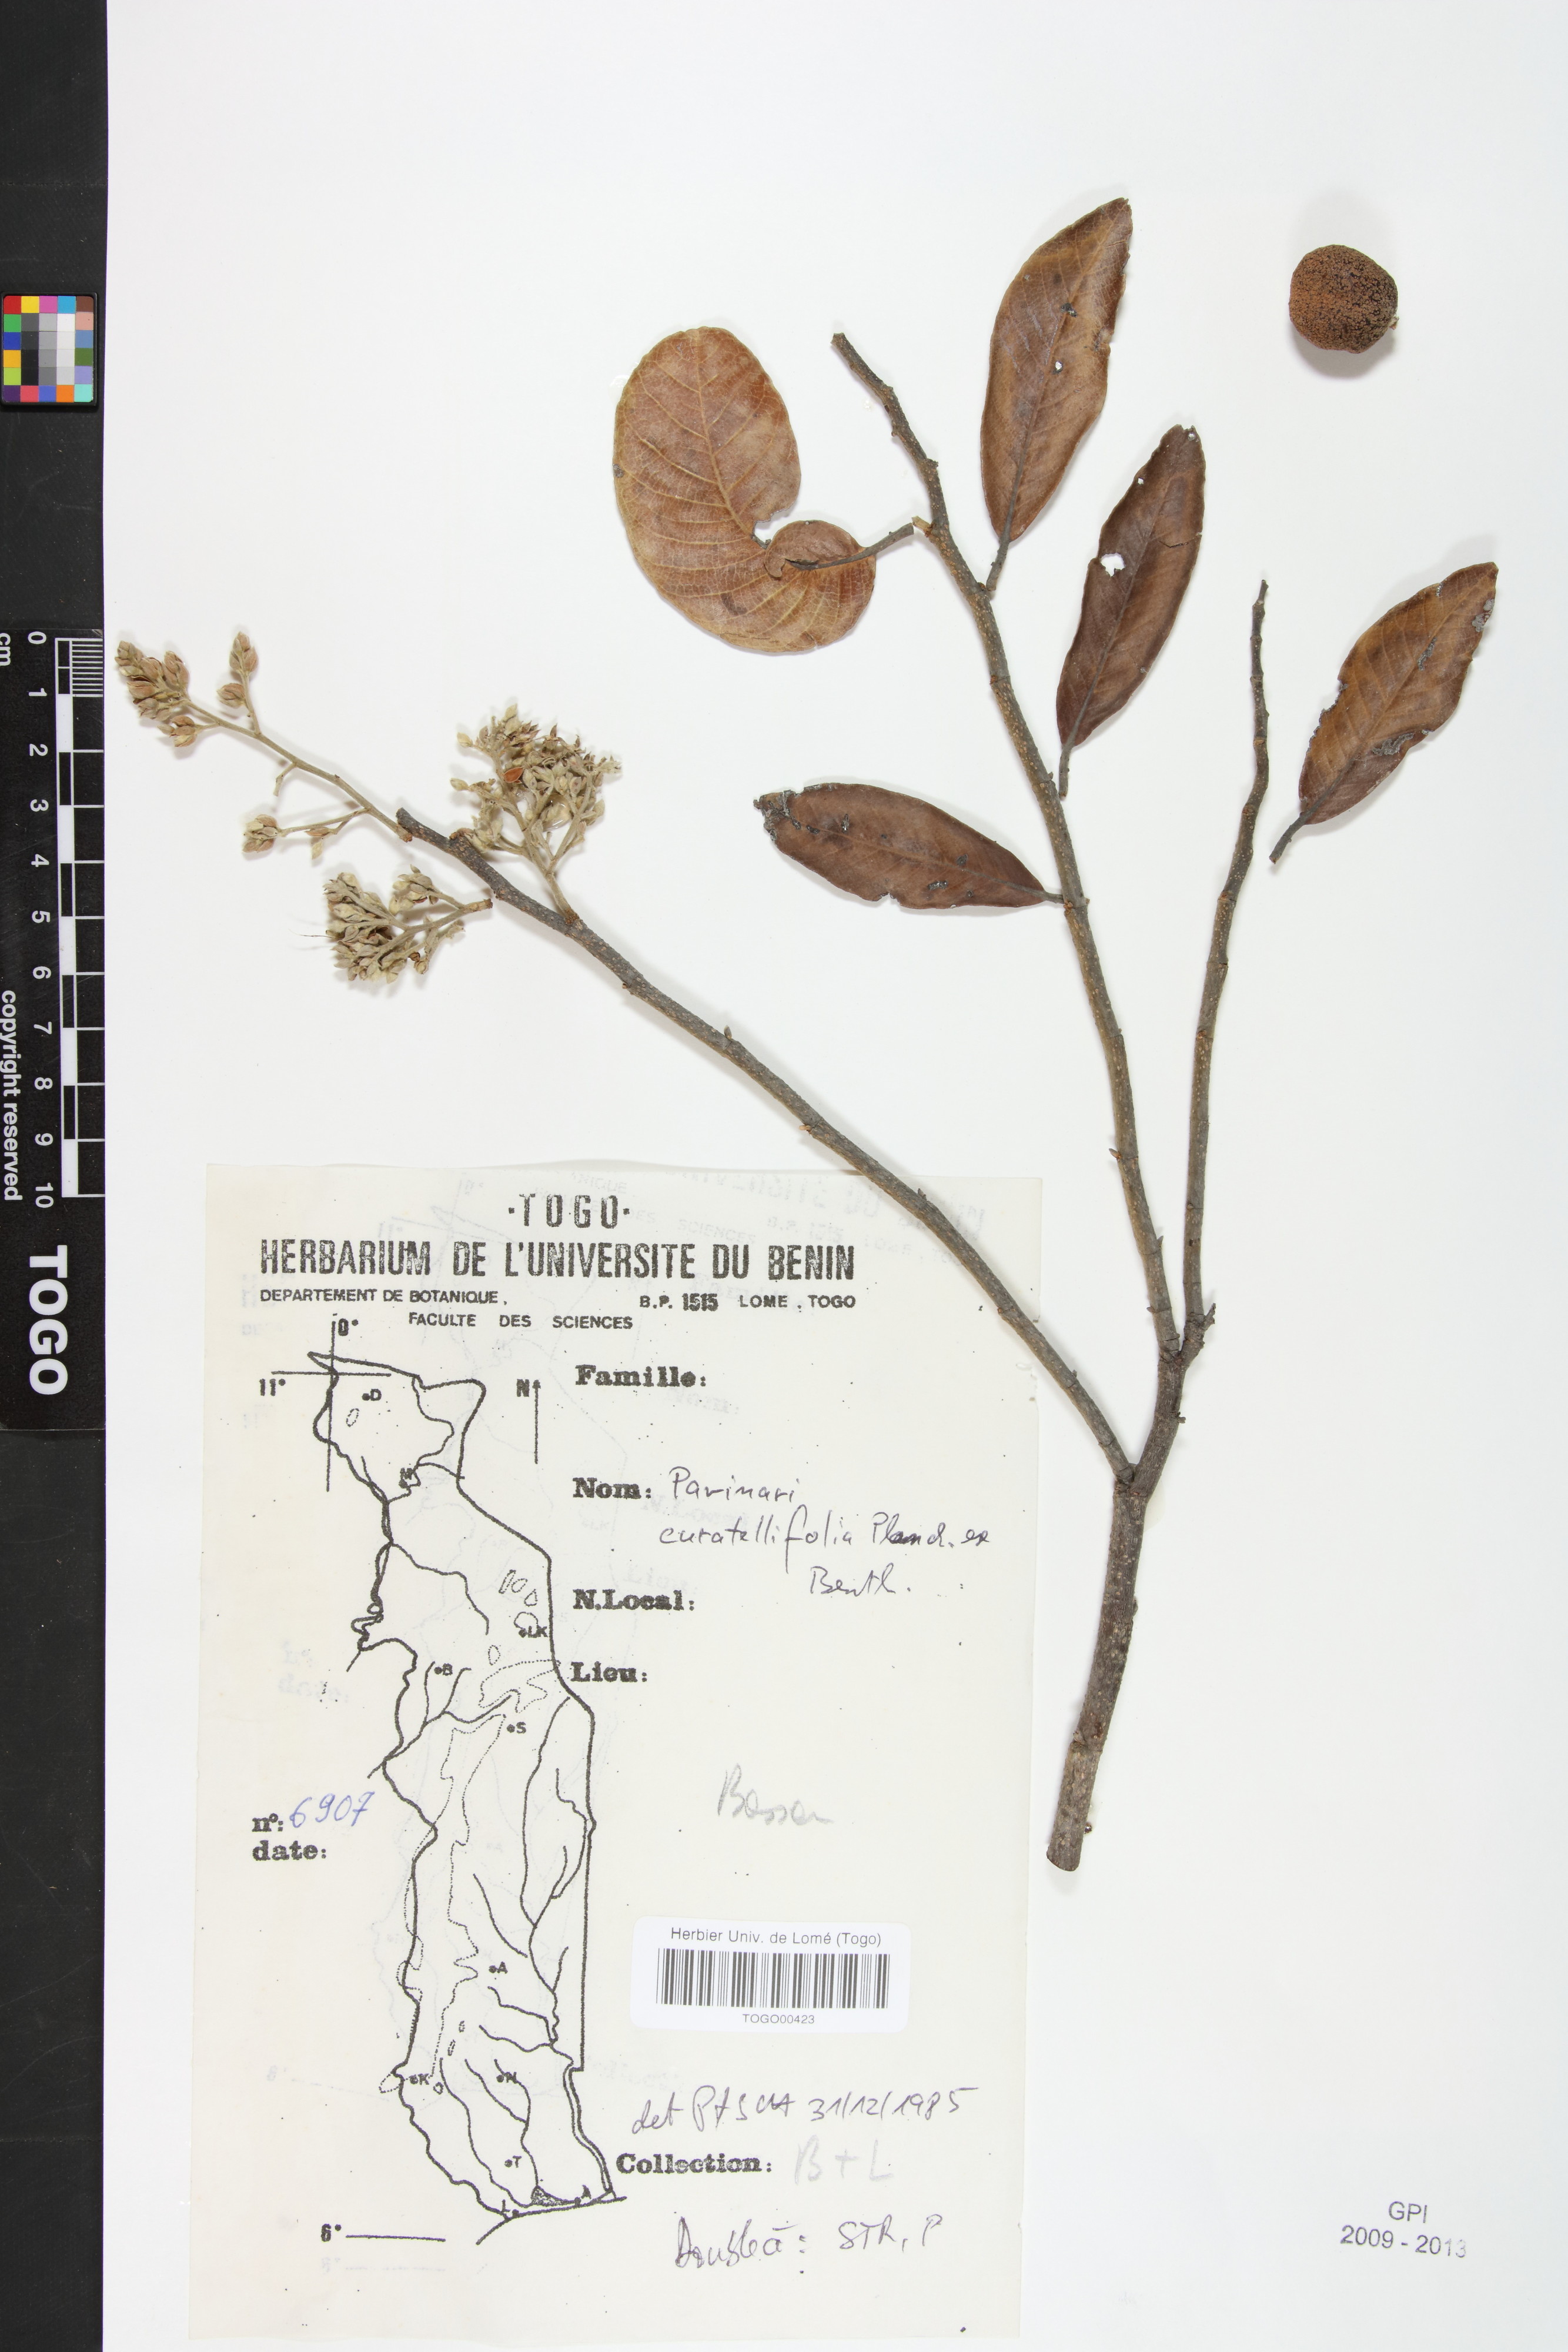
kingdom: Plantae
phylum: Tracheophyta
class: Magnoliopsida
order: Malpighiales
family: Chrysobalanaceae
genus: Parinari
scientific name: Parinari curatellifolia
